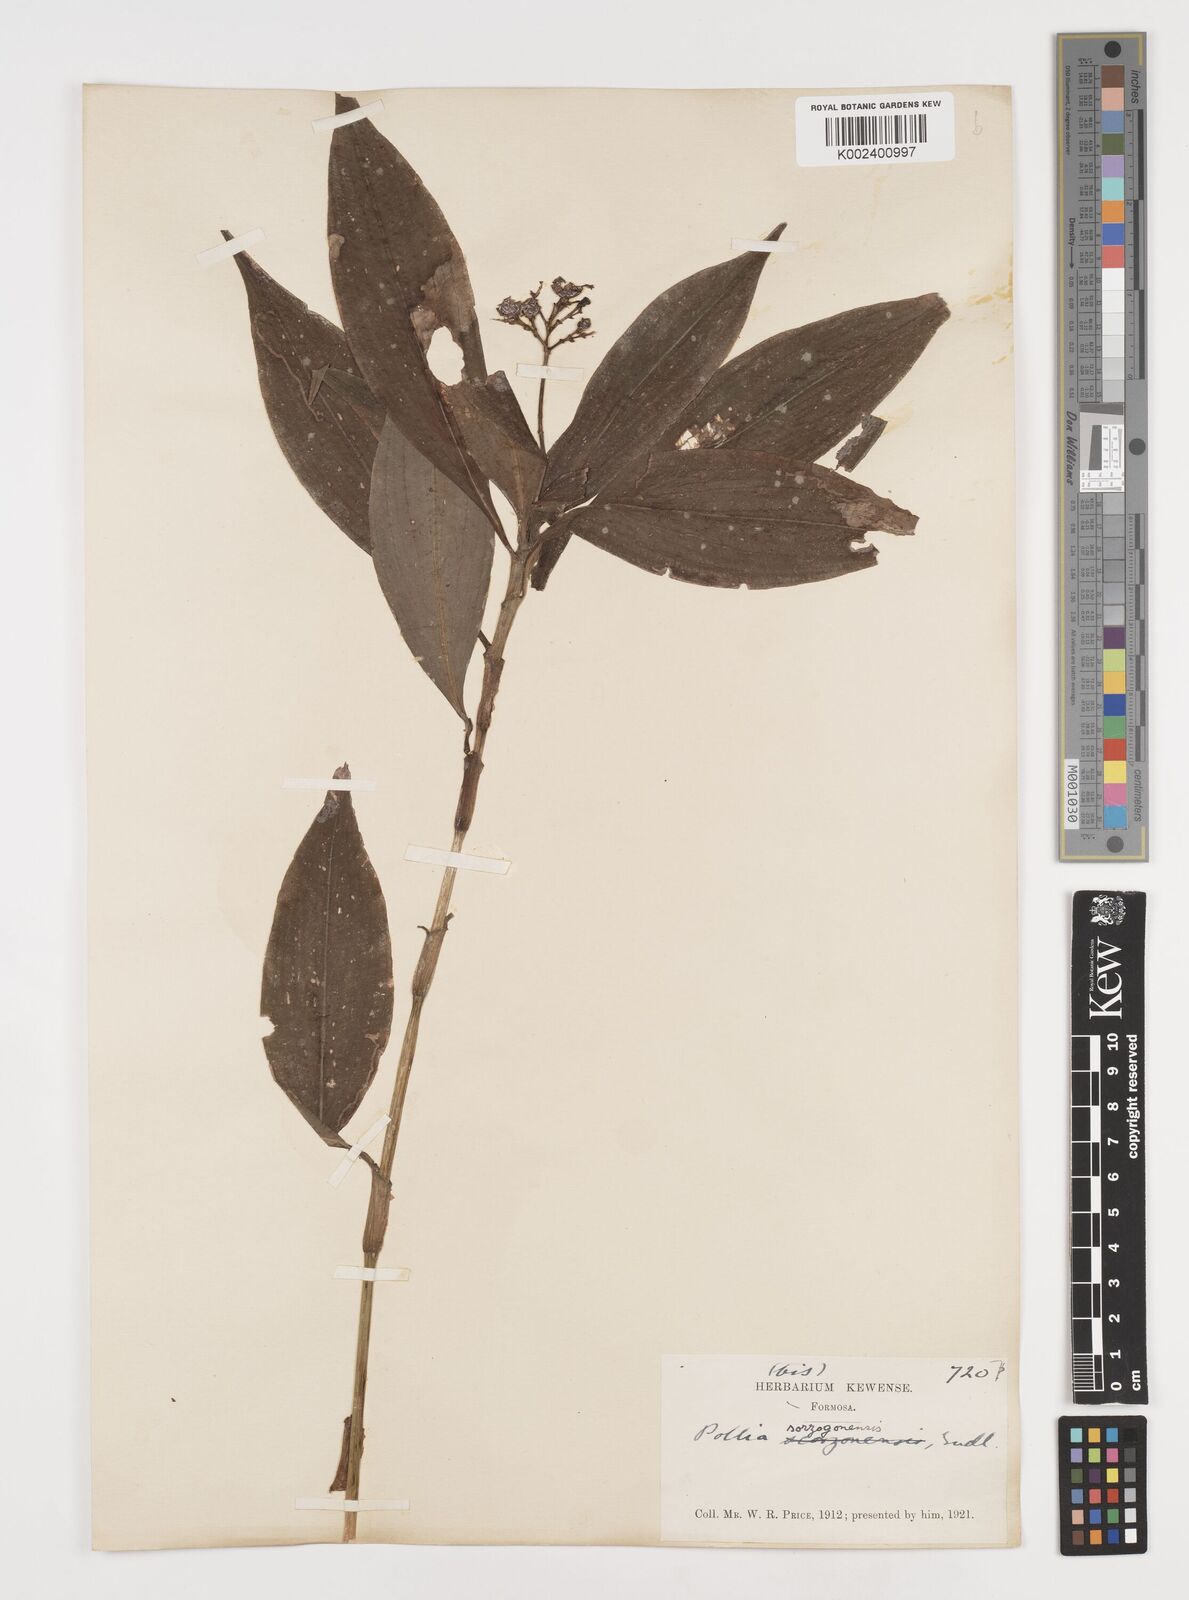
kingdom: Plantae
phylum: Tracheophyta
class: Liliopsida
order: Commelinales
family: Commelinaceae
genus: Pollia
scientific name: Pollia secundiflora
